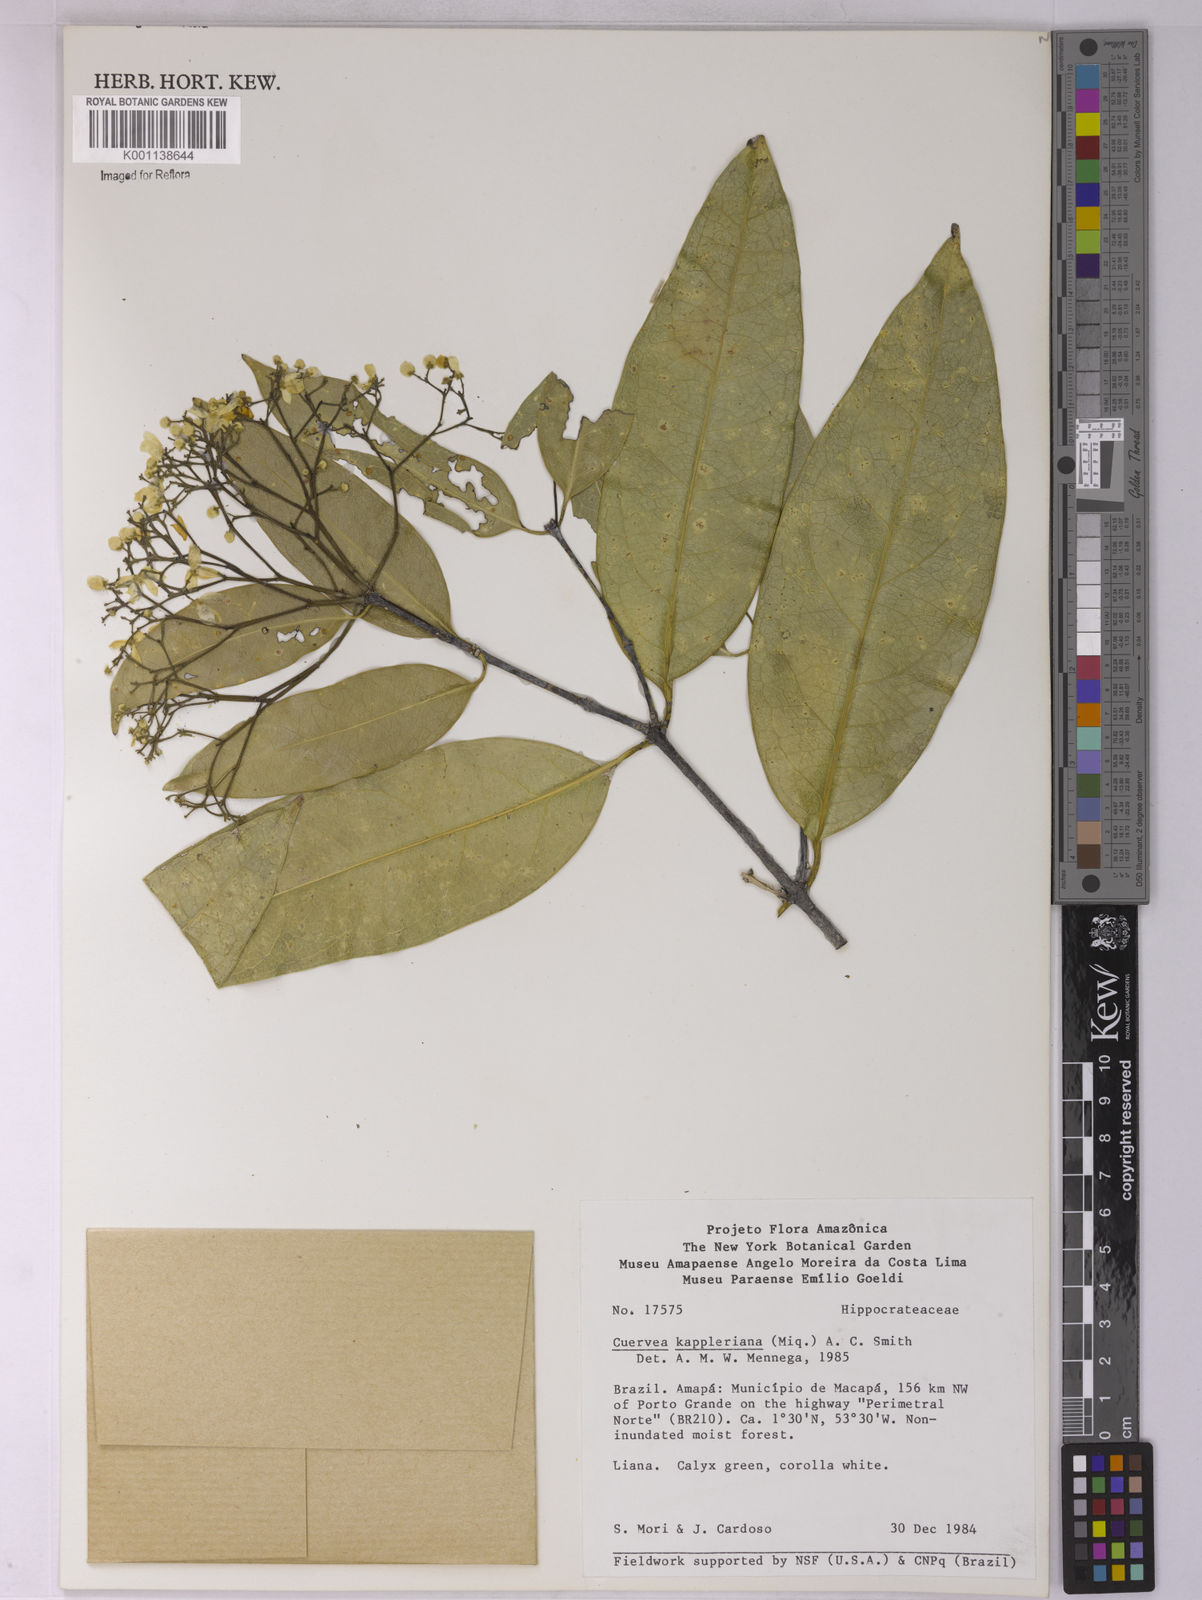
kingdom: Plantae
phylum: Tracheophyta
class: Magnoliopsida
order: Celastrales
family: Celastraceae
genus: Cuervea
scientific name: Cuervea kappleriana
